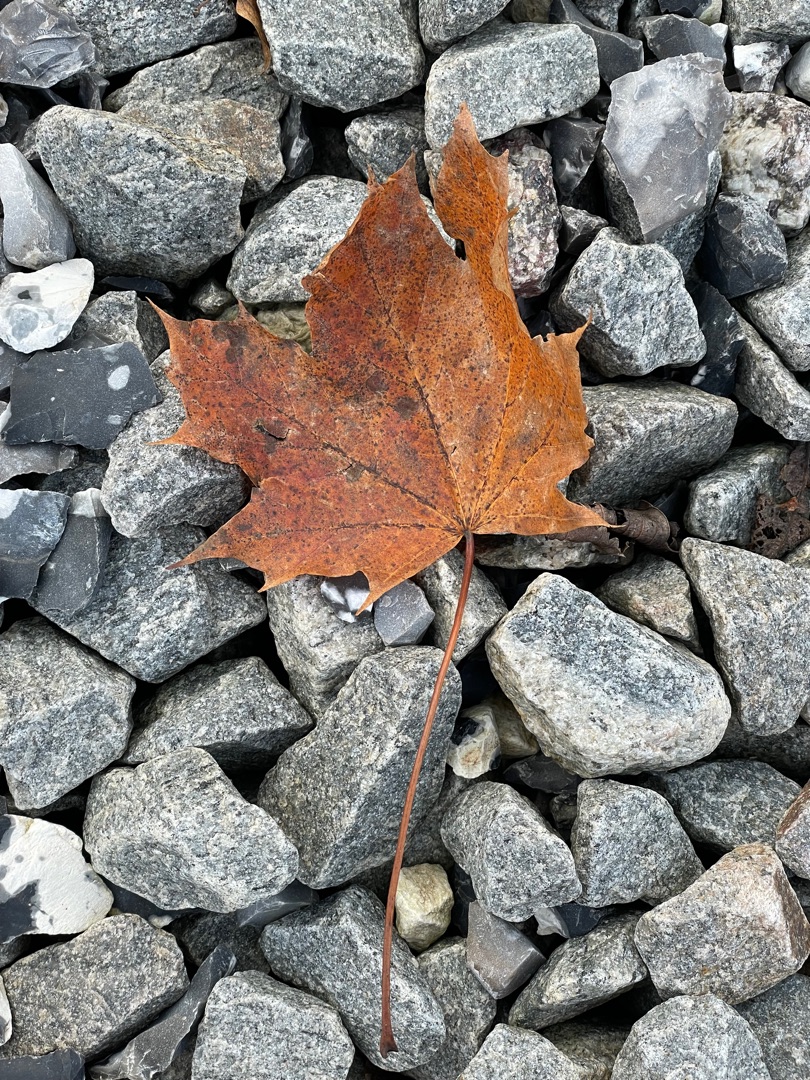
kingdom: Plantae
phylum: Tracheophyta
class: Magnoliopsida
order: Sapindales
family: Sapindaceae
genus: Acer
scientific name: Acer platanoides
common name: Spids-løn
